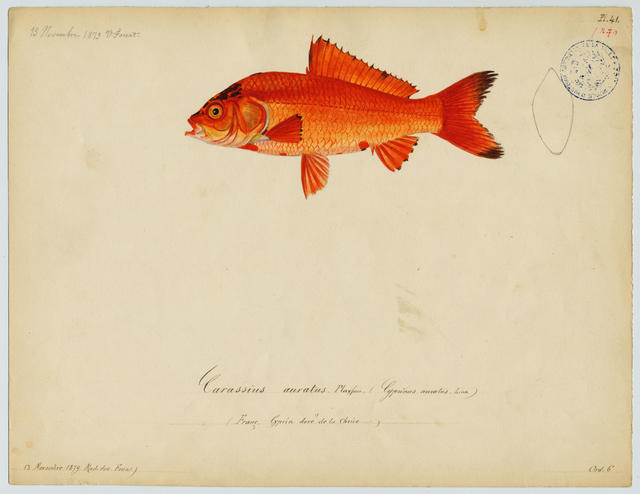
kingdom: Animalia
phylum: Chordata
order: Cypriniformes
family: Cyprinidae
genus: Carassius
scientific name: Carassius auratus
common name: Goldfish
